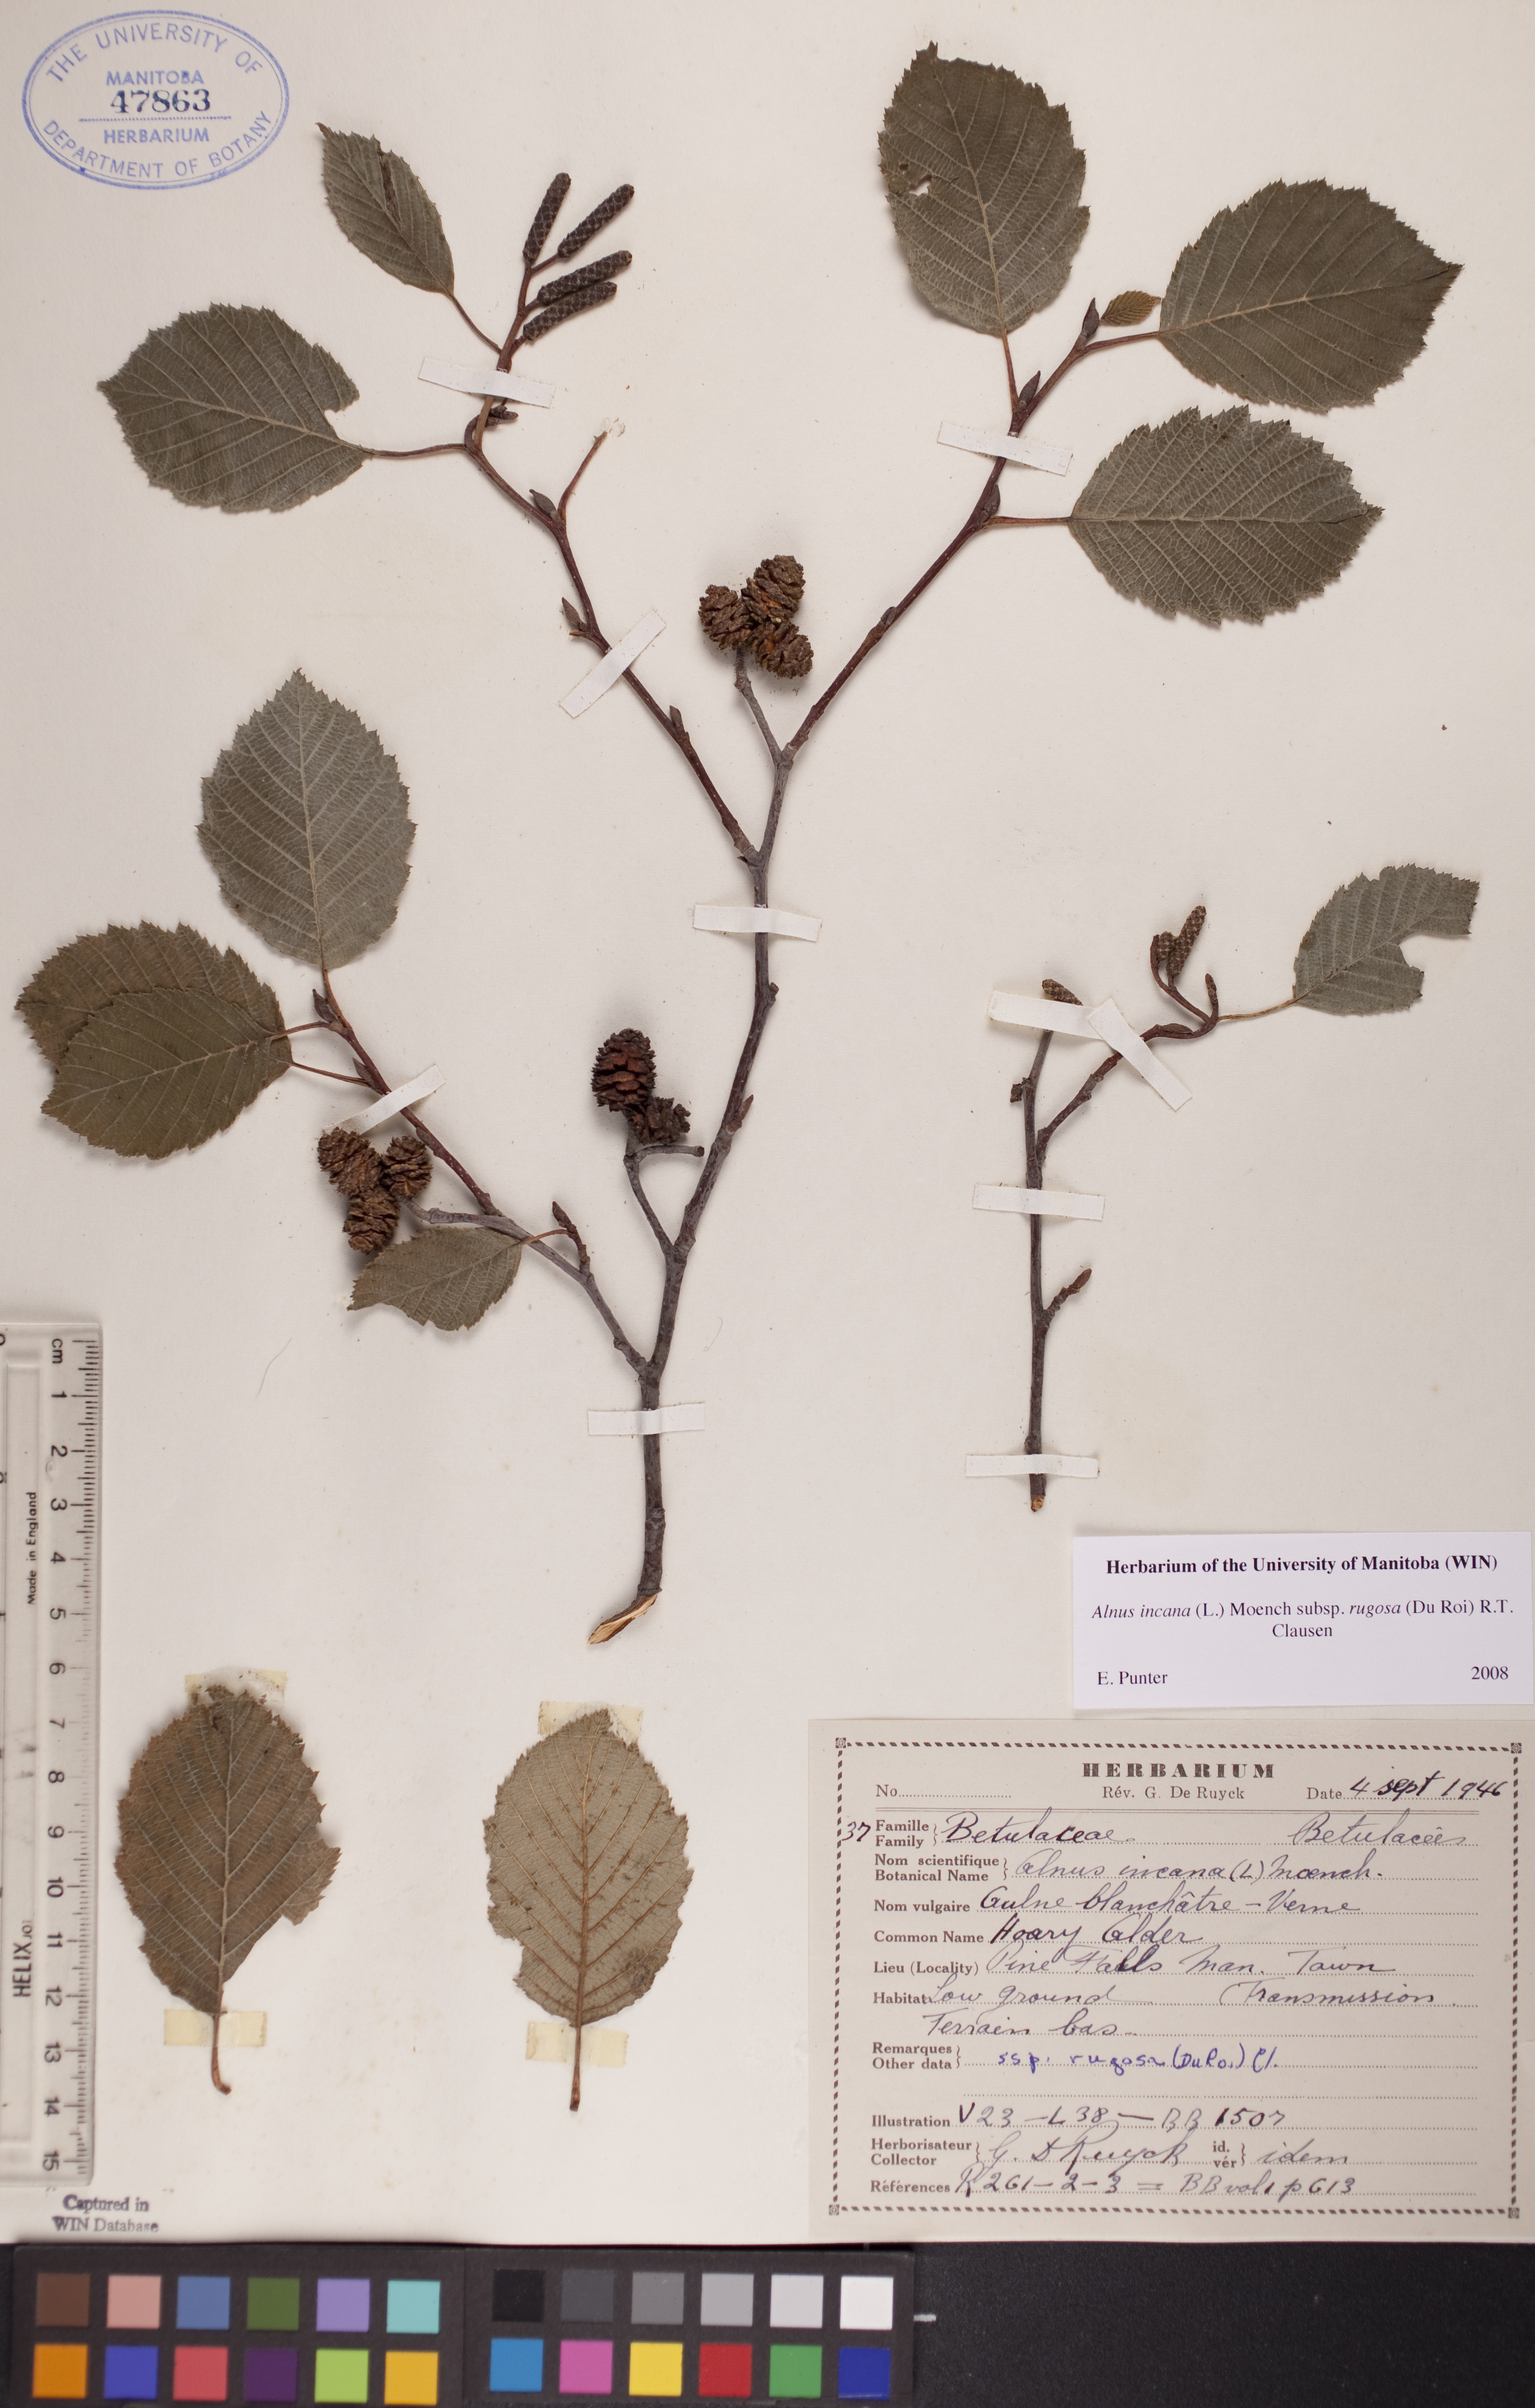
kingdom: Plantae
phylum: Tracheophyta
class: Magnoliopsida
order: Fagales
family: Betulaceae
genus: Alnus
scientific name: Alnus incana
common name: Grey alder
